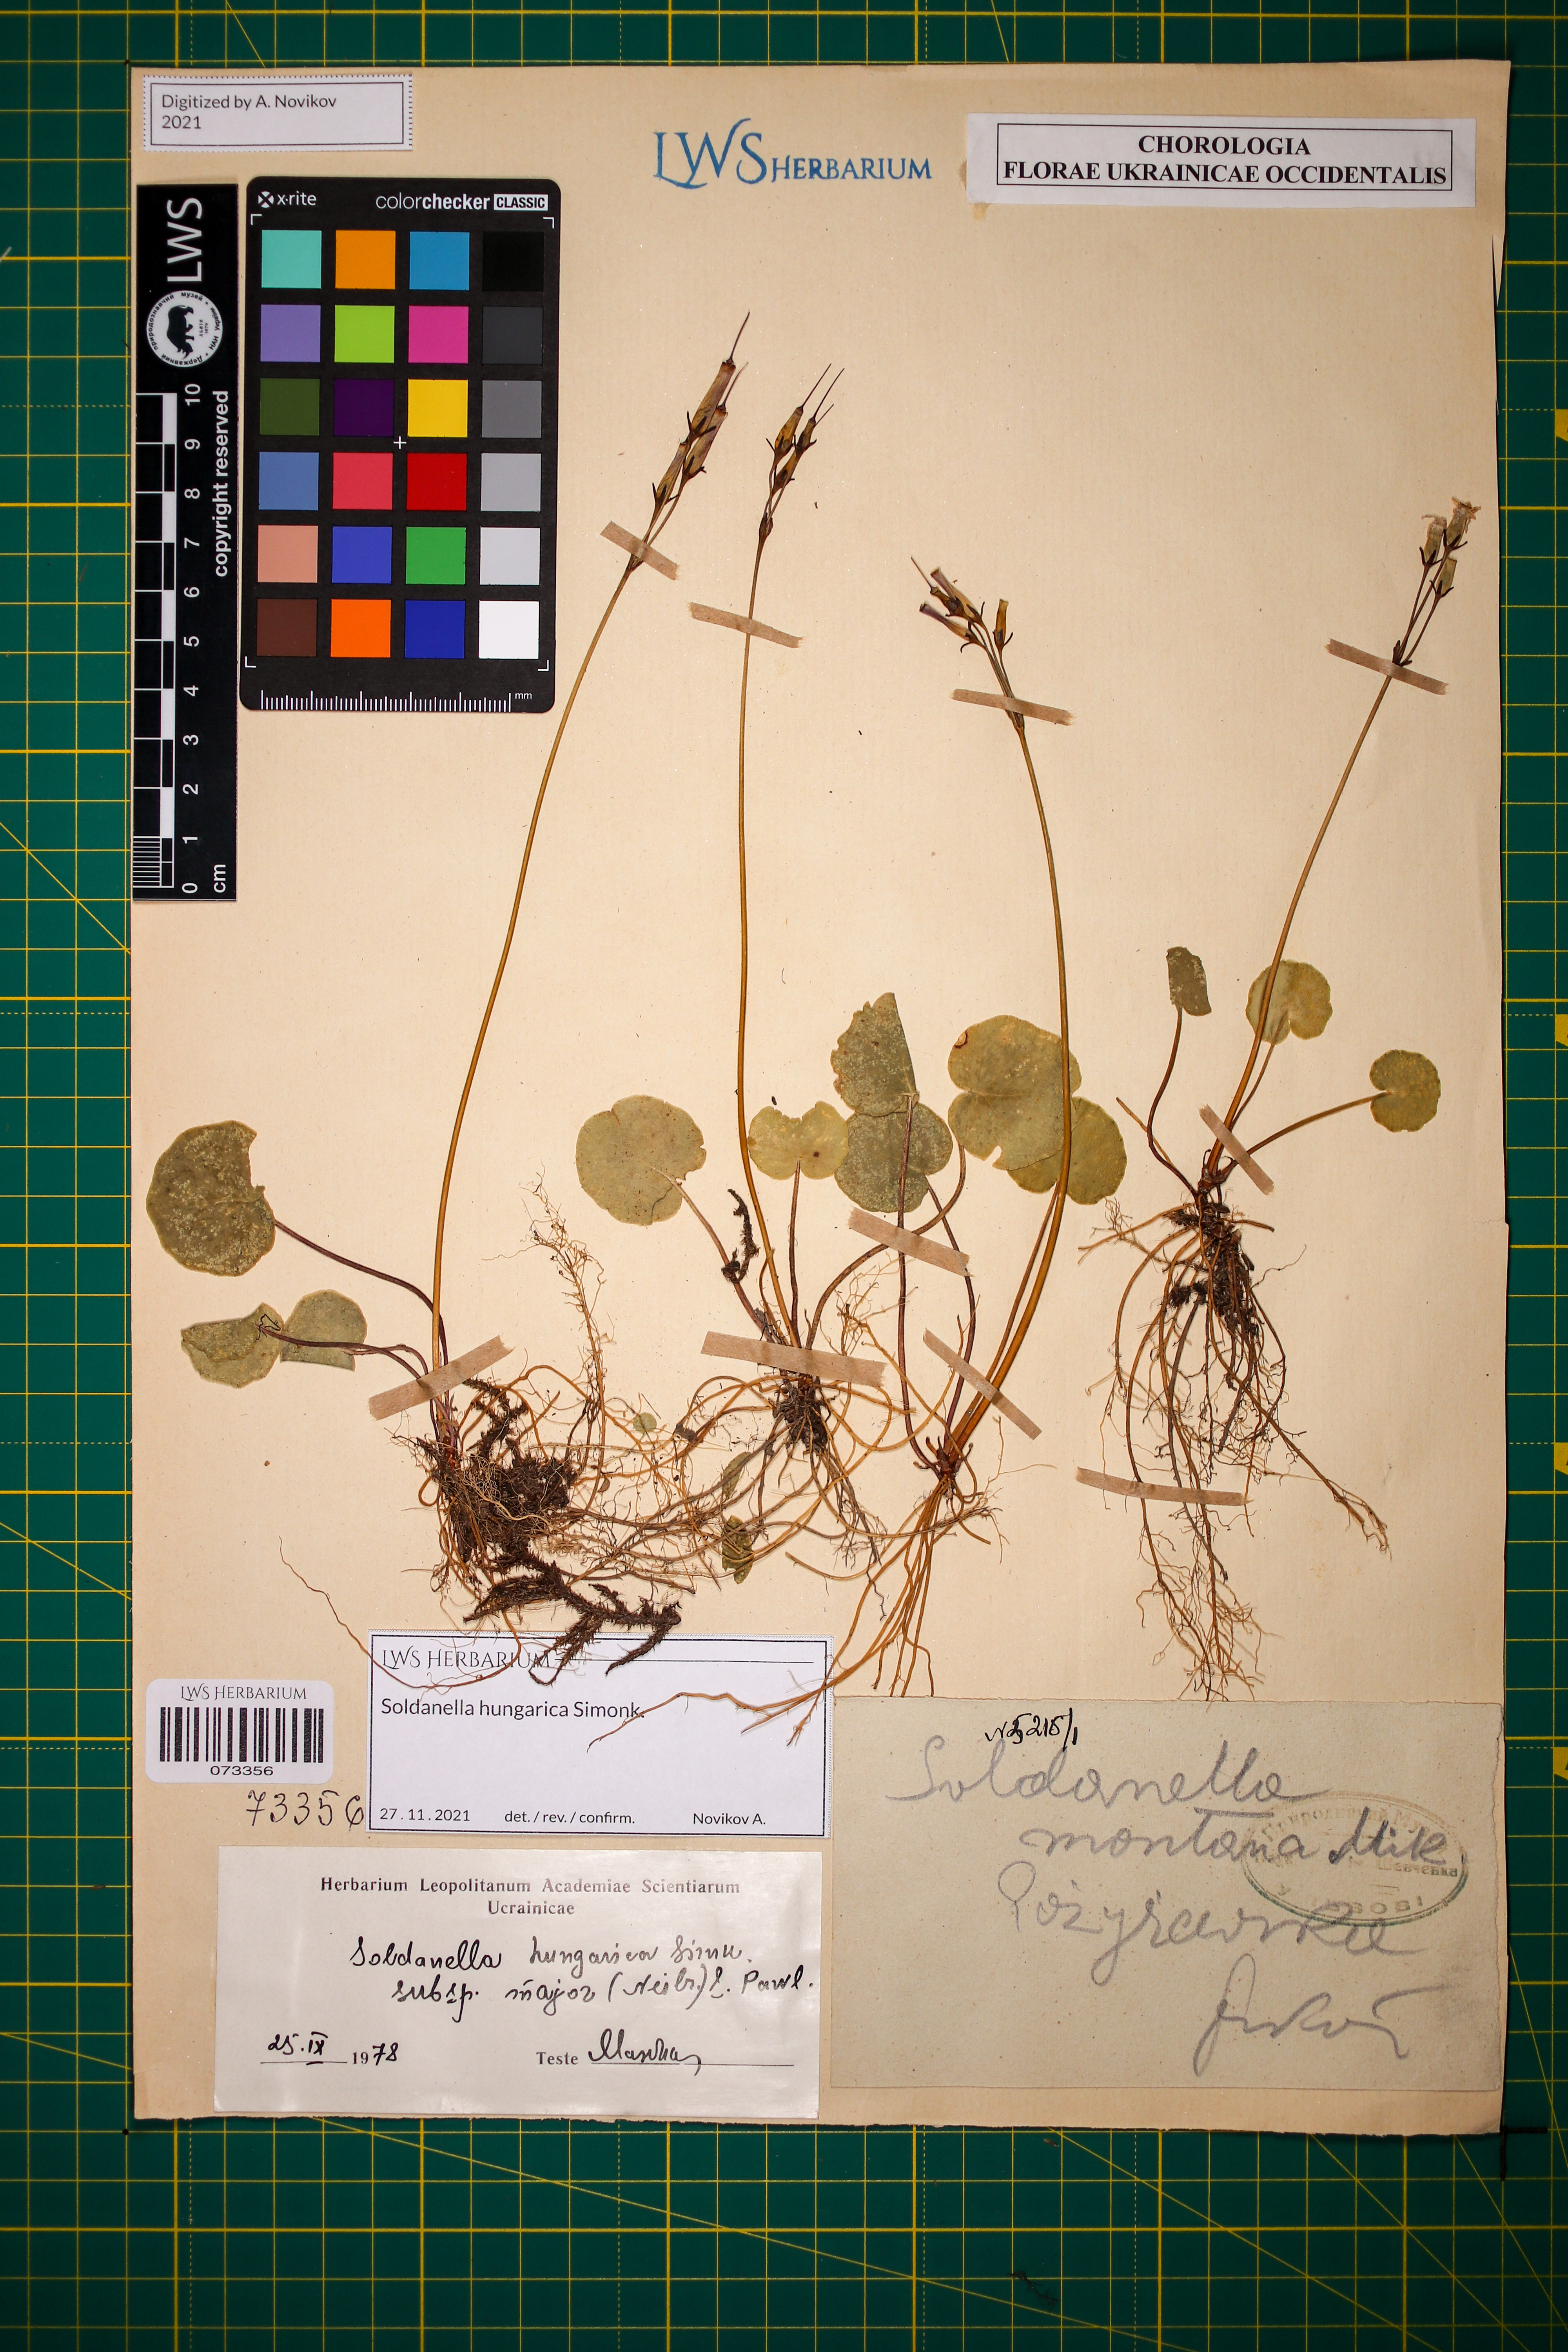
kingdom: Plantae
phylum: Tracheophyta
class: Magnoliopsida
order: Ericales
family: Primulaceae
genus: Soldanella
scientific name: Soldanella hungarica
